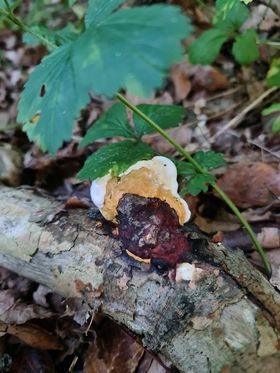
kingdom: Fungi
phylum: Basidiomycota
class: Agaricomycetes
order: Polyporales
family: Fomitopsidaceae
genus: Fomitopsis
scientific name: Fomitopsis pinicola
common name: randbæltet hovporesvamp
